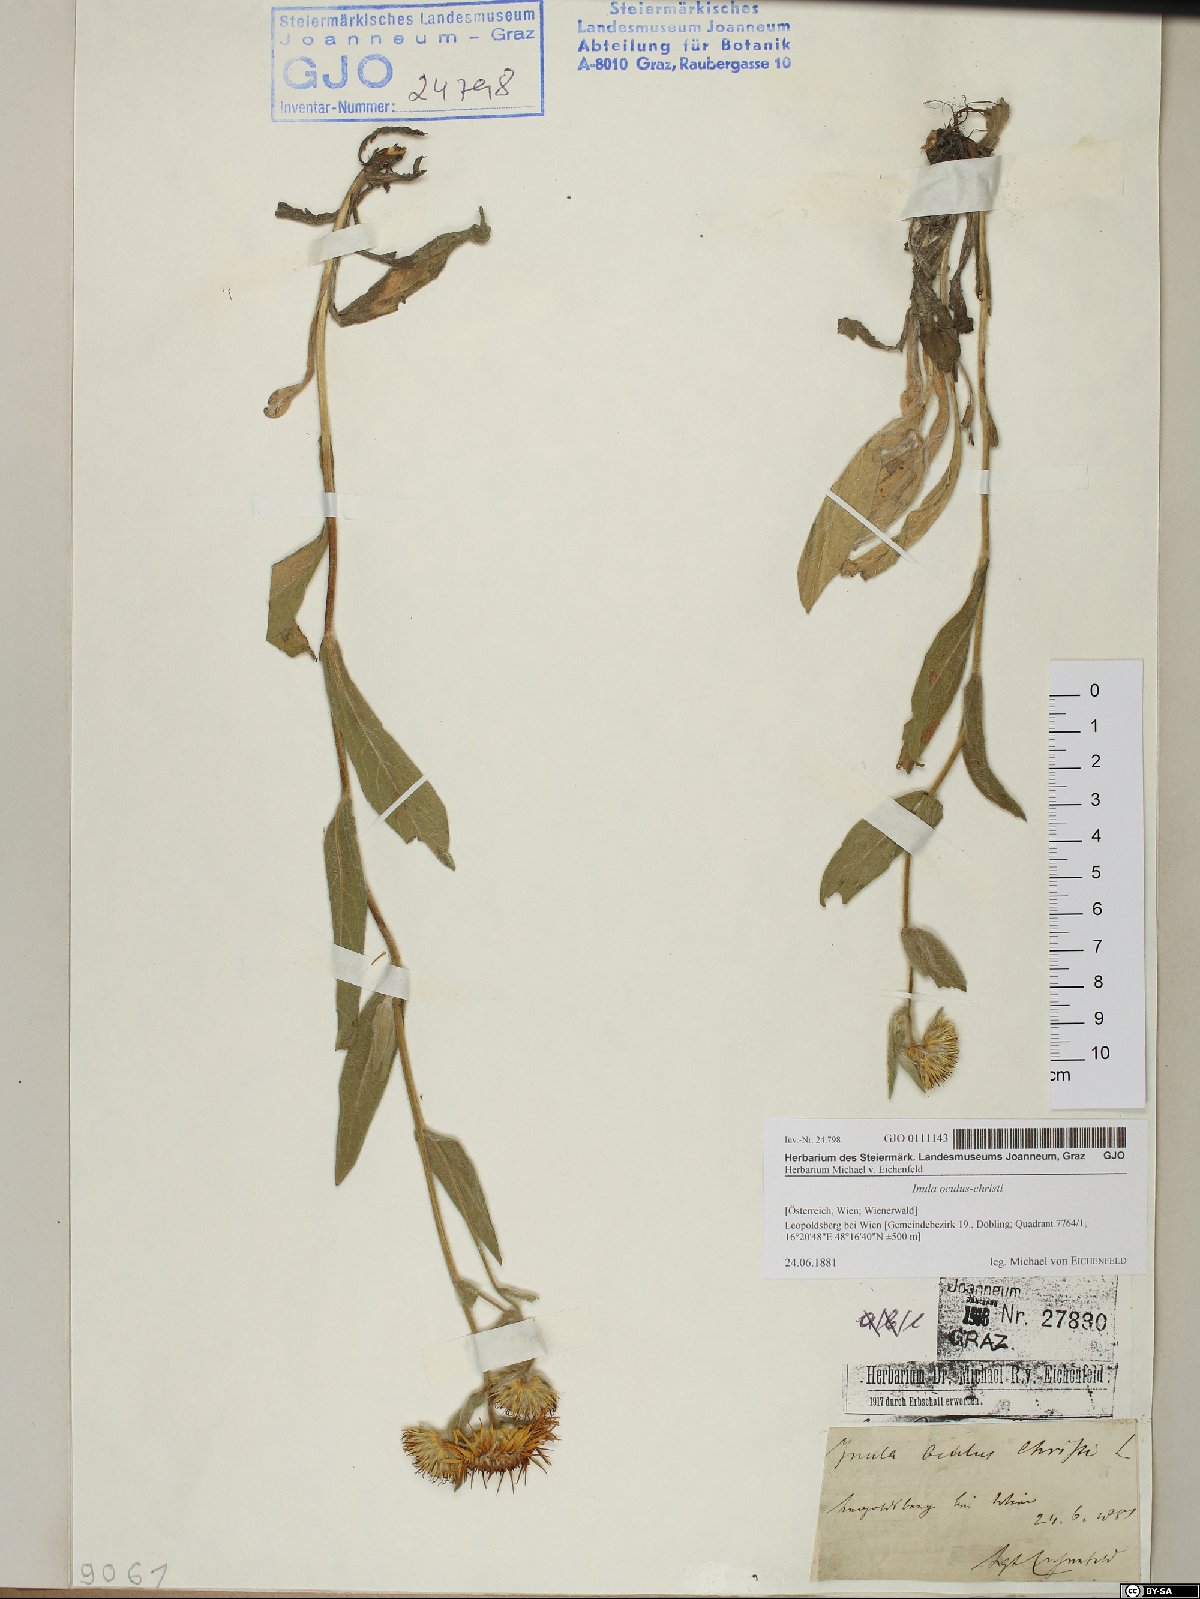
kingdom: Plantae
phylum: Tracheophyta
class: Magnoliopsida
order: Asterales
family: Asteraceae
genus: Pentanema
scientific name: Pentanema oculus-christi
